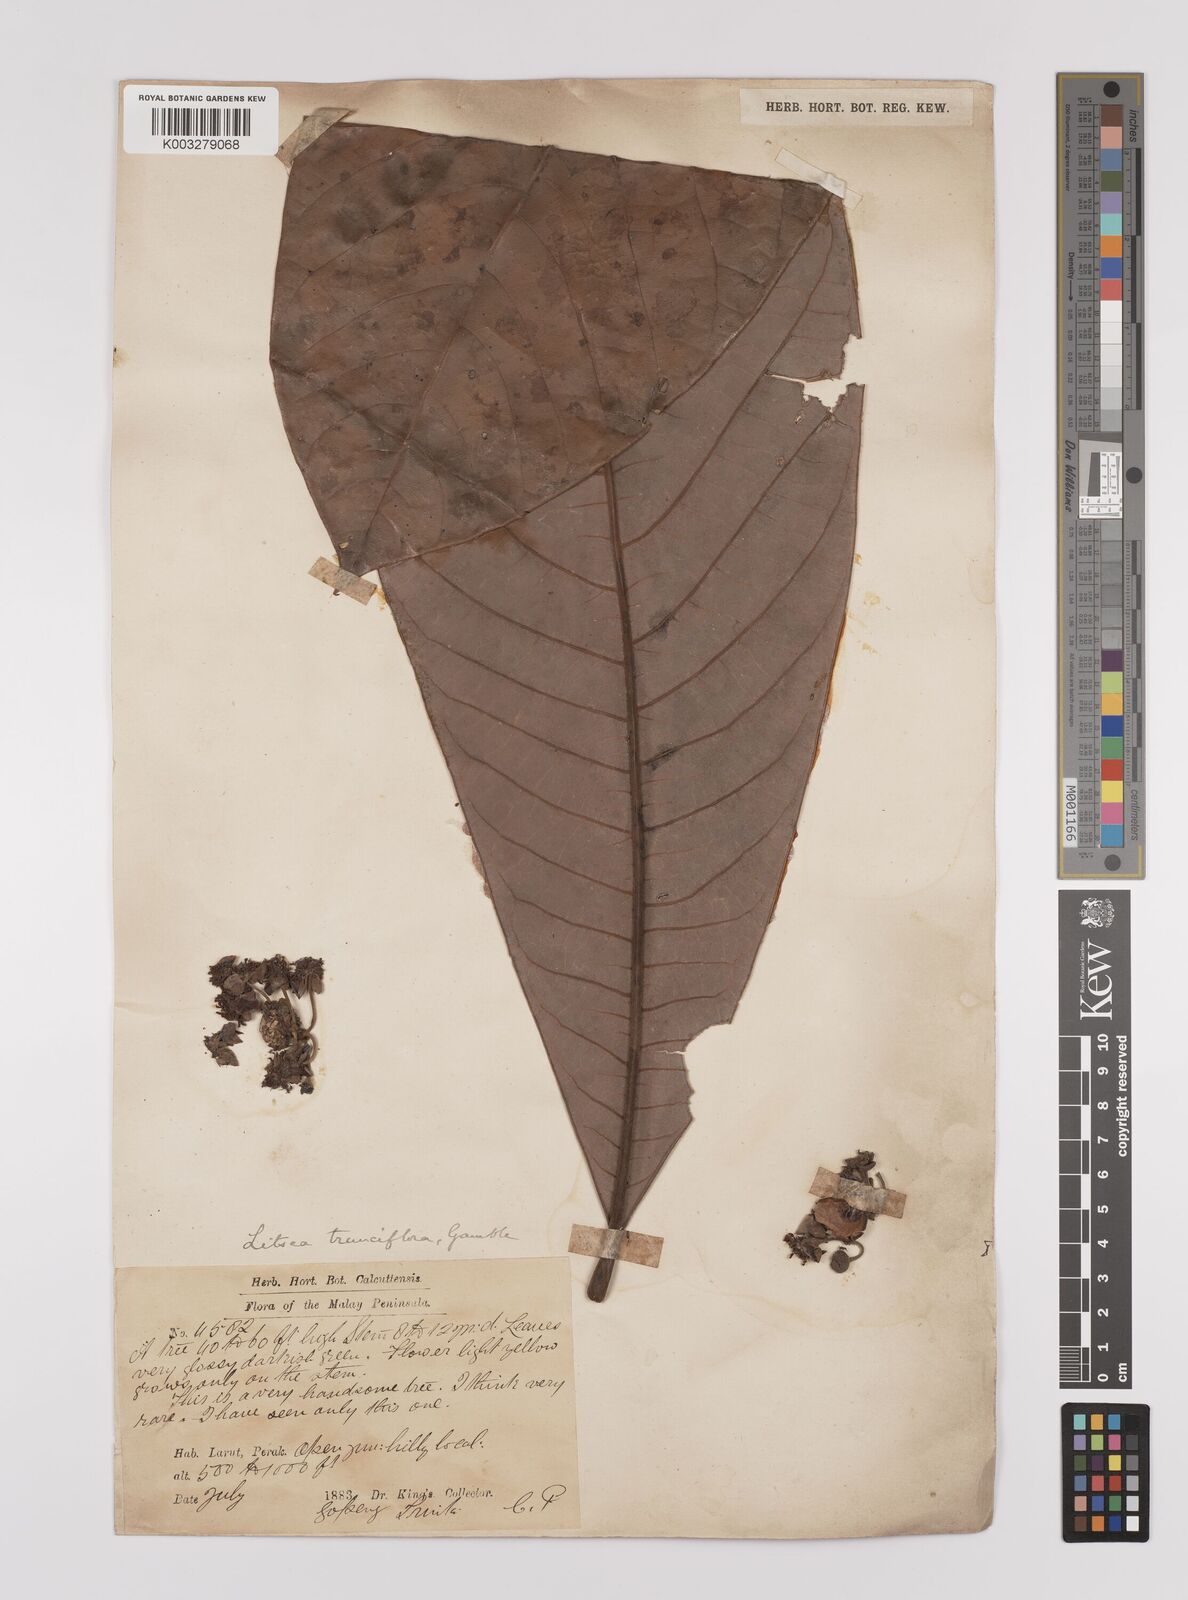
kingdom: Plantae
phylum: Tracheophyta
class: Magnoliopsida
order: Laurales
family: Lauraceae
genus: Litsea
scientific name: Litsea johorensis
